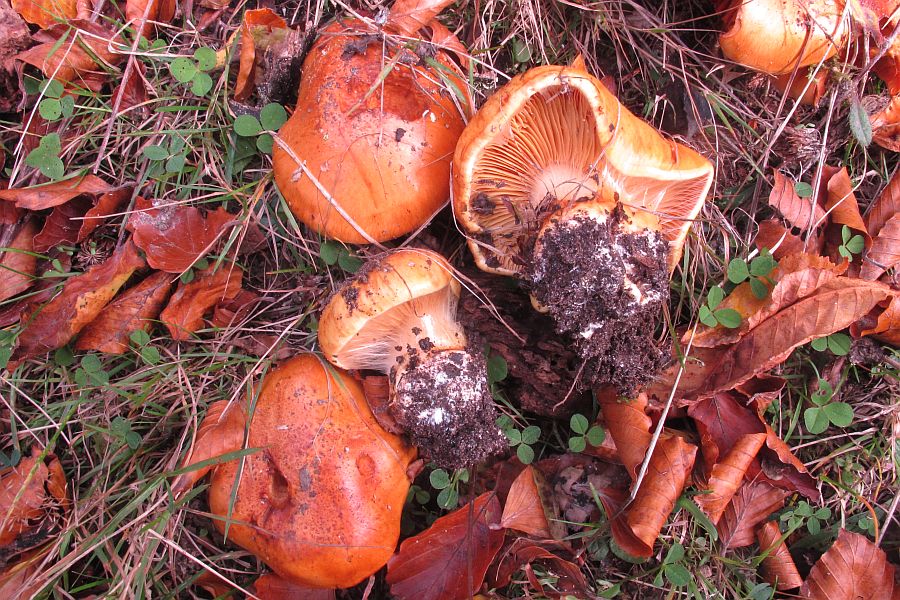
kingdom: Fungi
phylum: Basidiomycota
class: Agaricomycetes
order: Agaricales
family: Cortinariaceae
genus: Calonarius
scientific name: Calonarius alcalinophilus
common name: gyldenbrun slørhat
